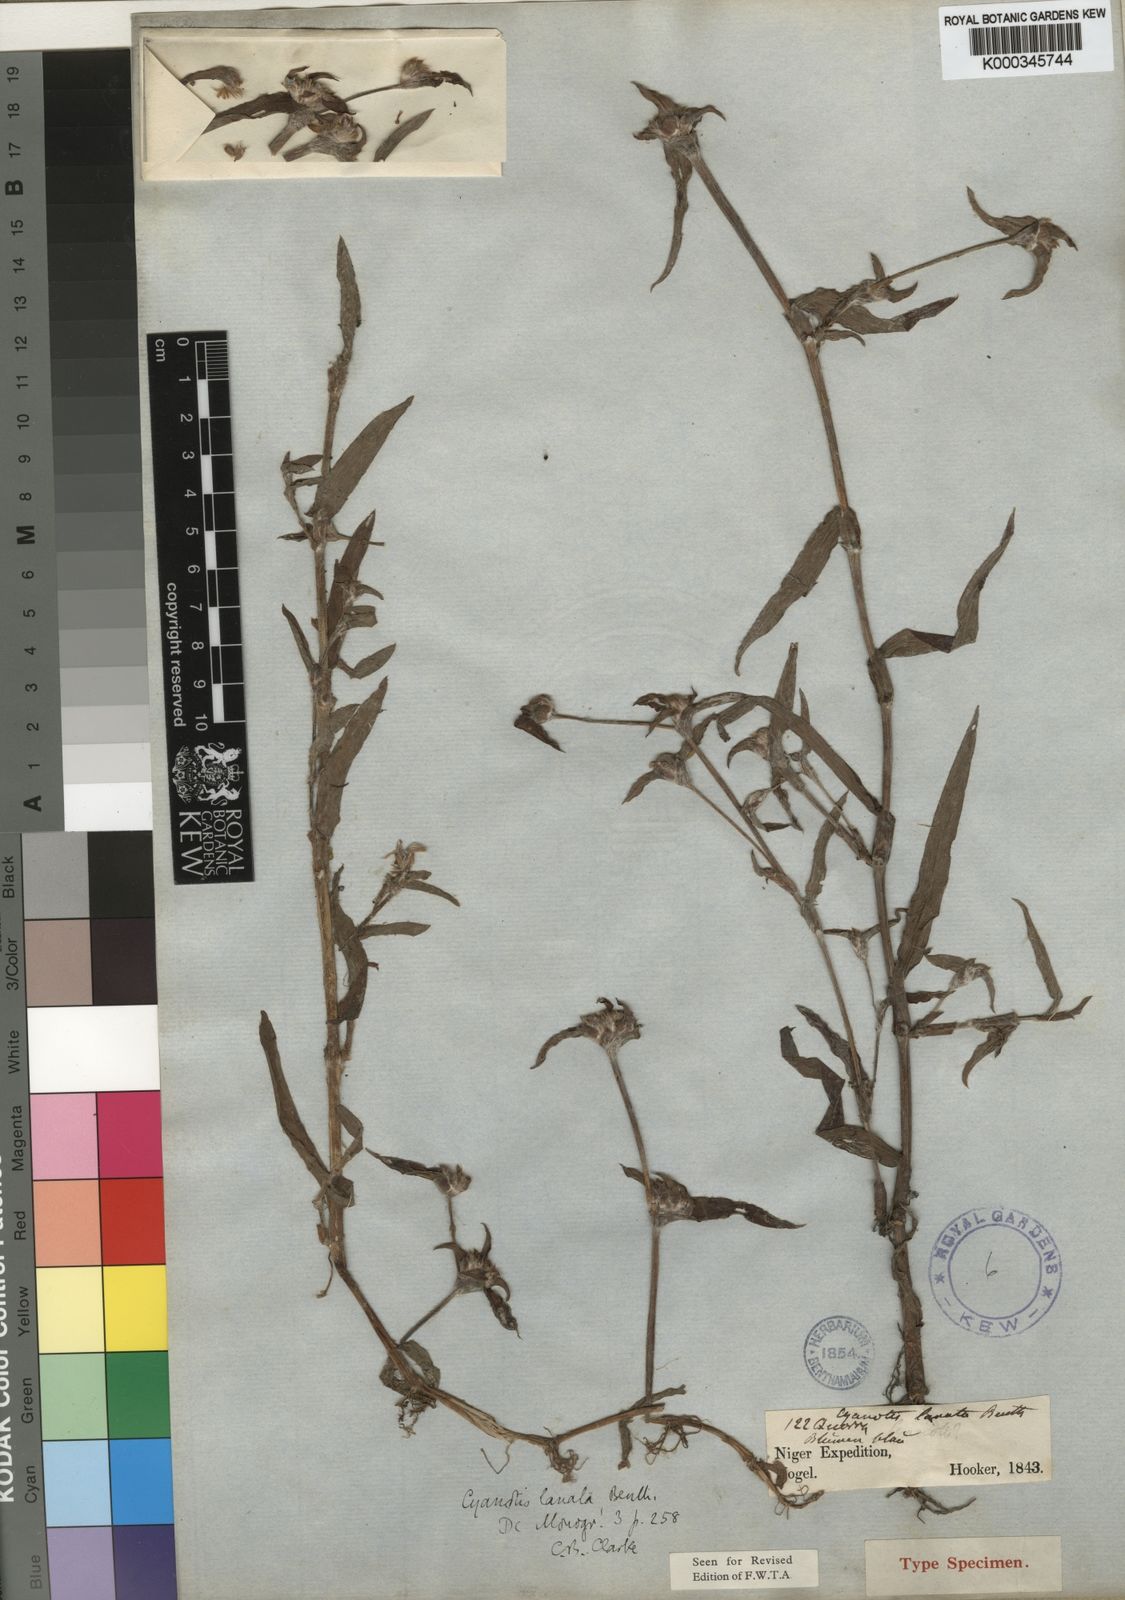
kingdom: Plantae
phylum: Tracheophyta
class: Liliopsida
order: Commelinales
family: Commelinaceae
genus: Cyanotis
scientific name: Cyanotis lanata
